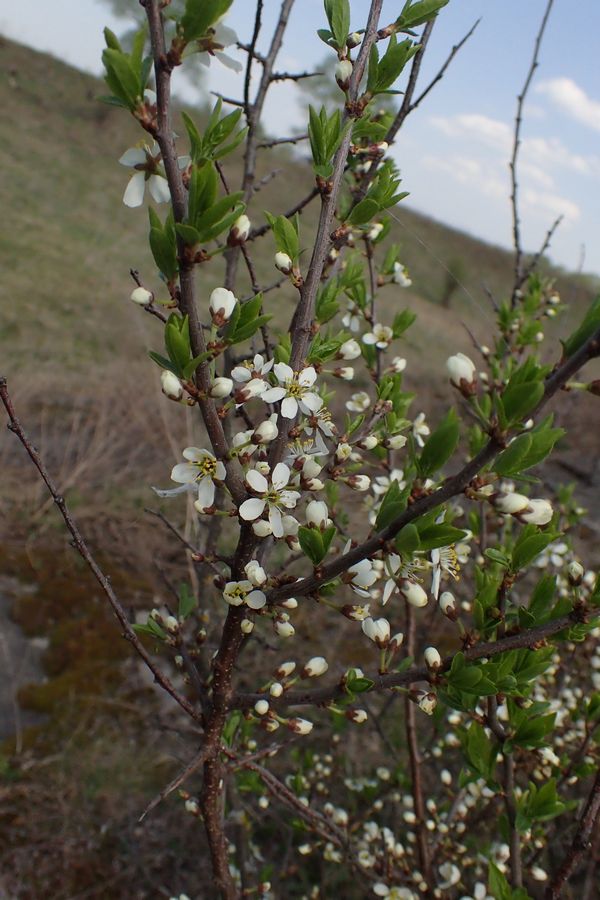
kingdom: Plantae
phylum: Tracheophyta
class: Magnoliopsida
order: Rosales
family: Rosaceae
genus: Prunus
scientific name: Prunus cerasus
